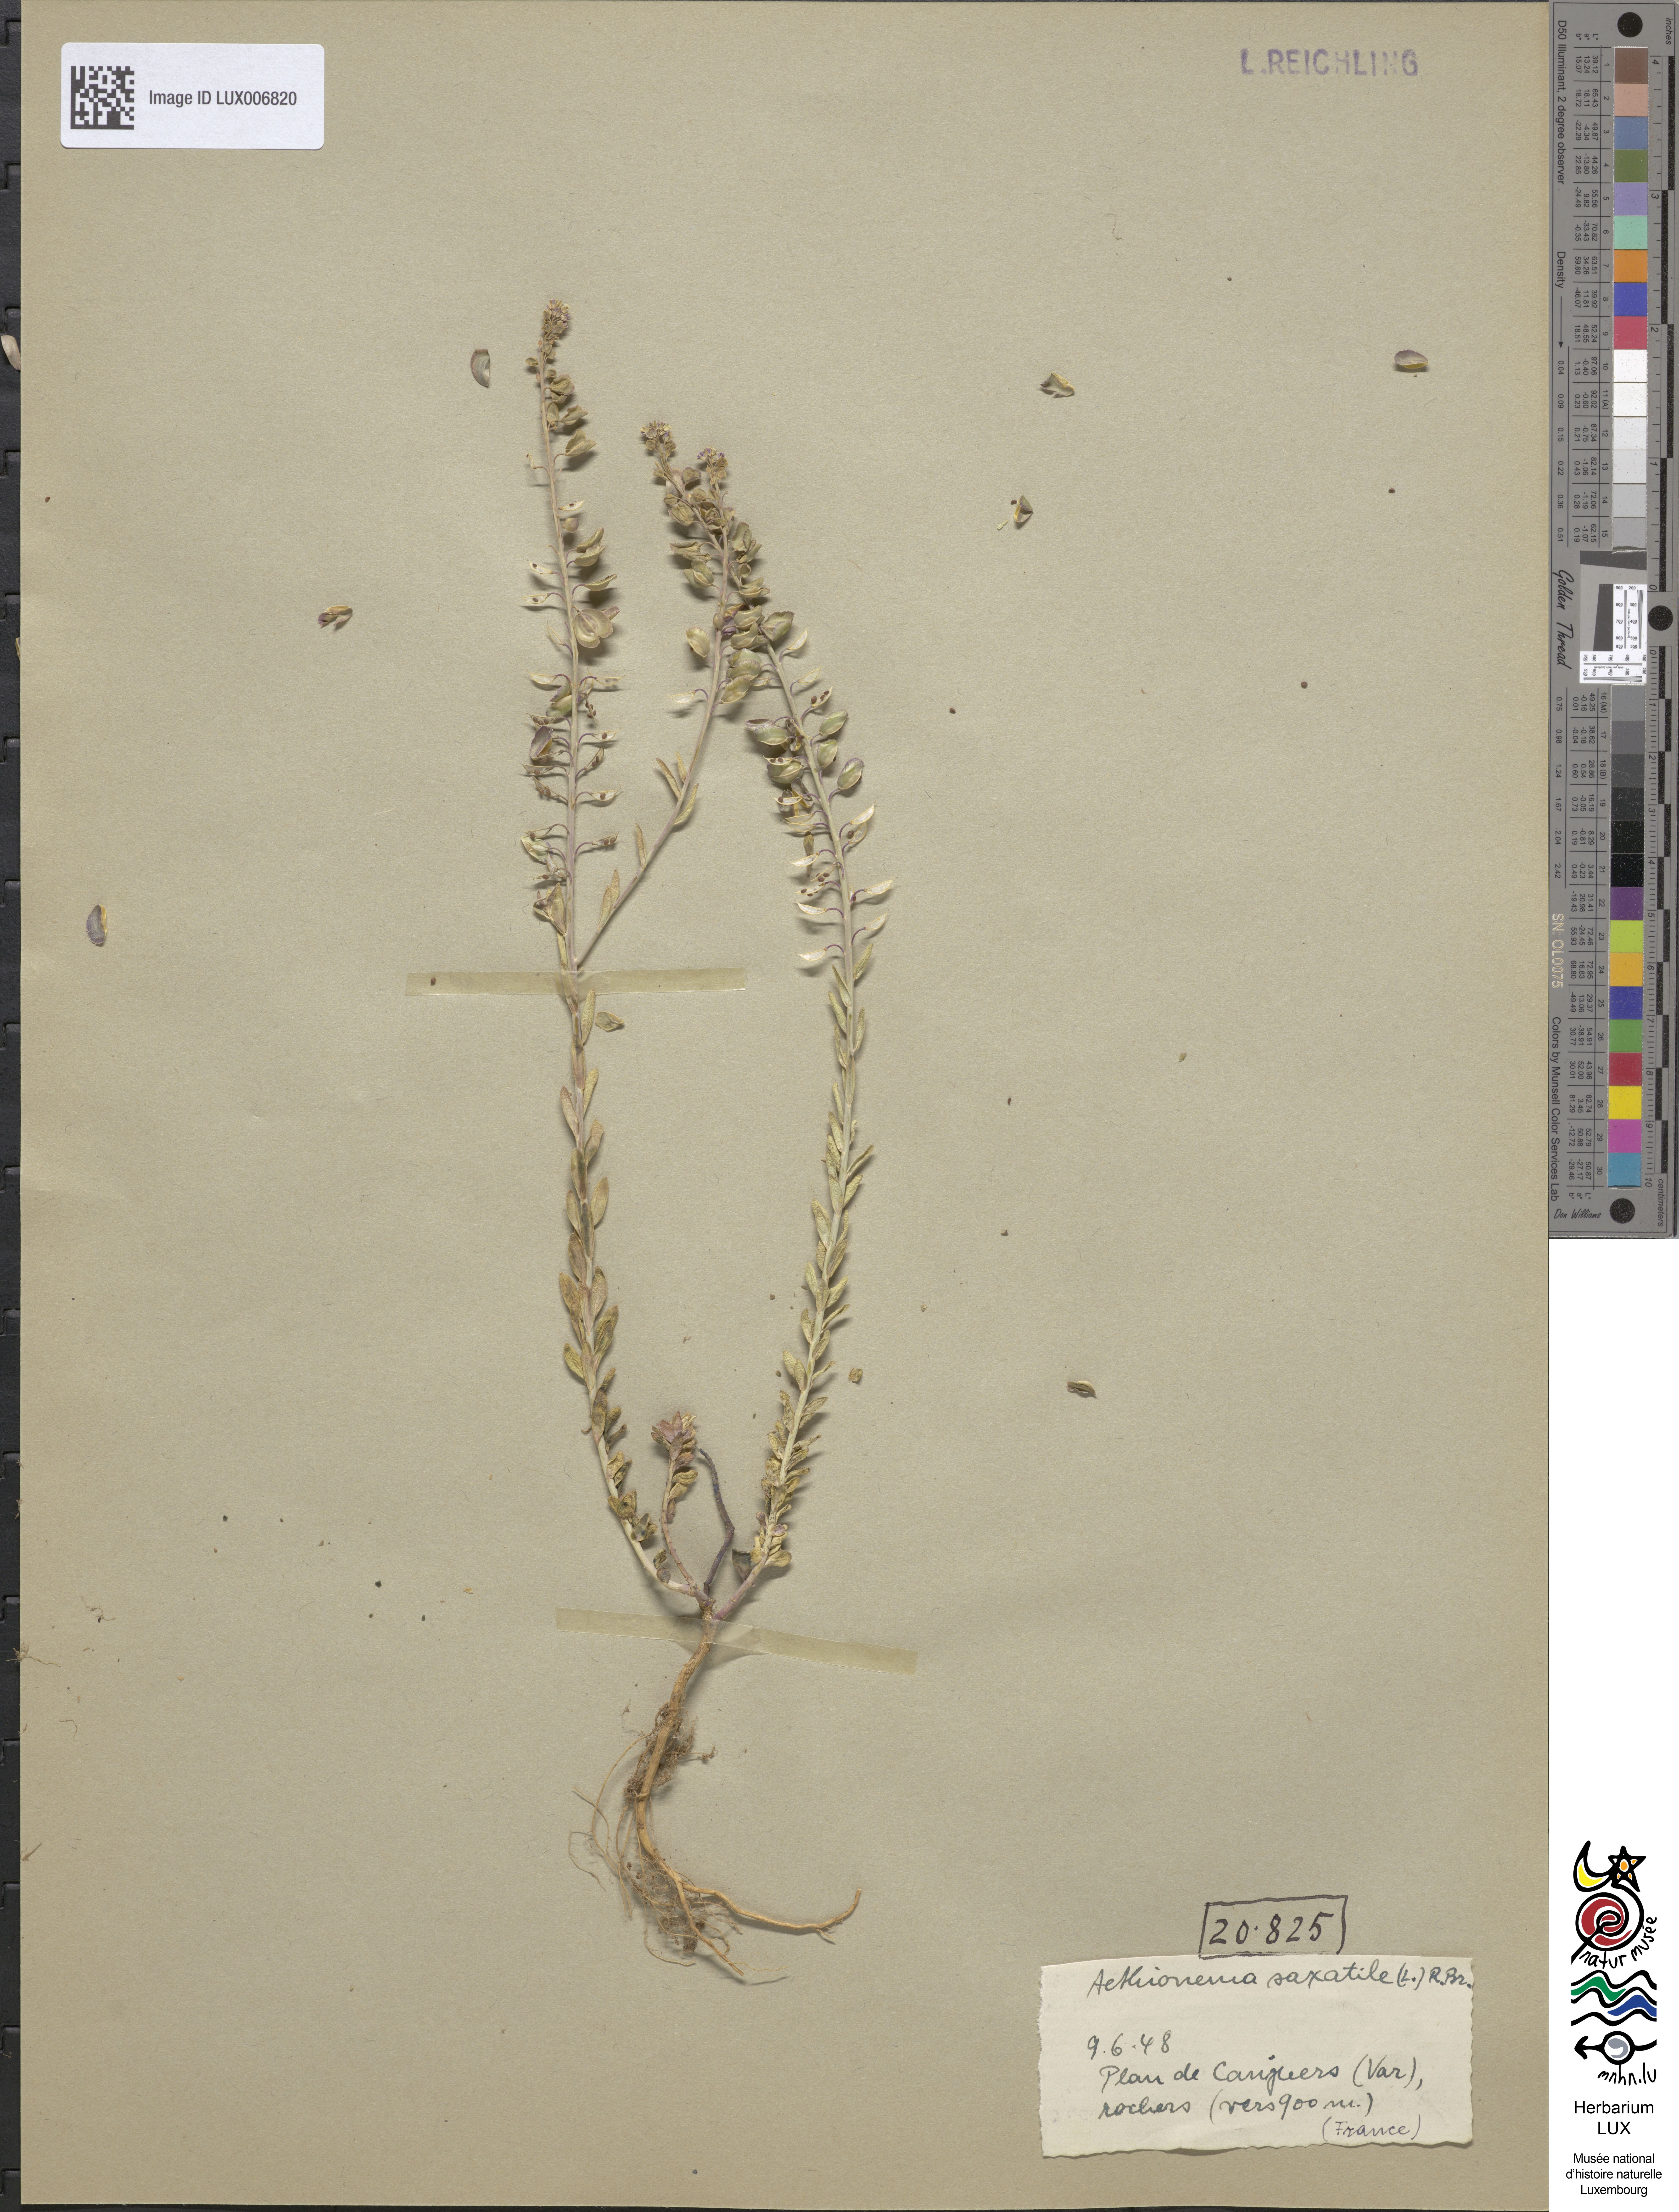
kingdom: Plantae
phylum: Tracheophyta
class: Magnoliopsida
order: Brassicales
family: Brassicaceae
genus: Aethionema
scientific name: Aethionema saxatile
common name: Burnt candytuft
